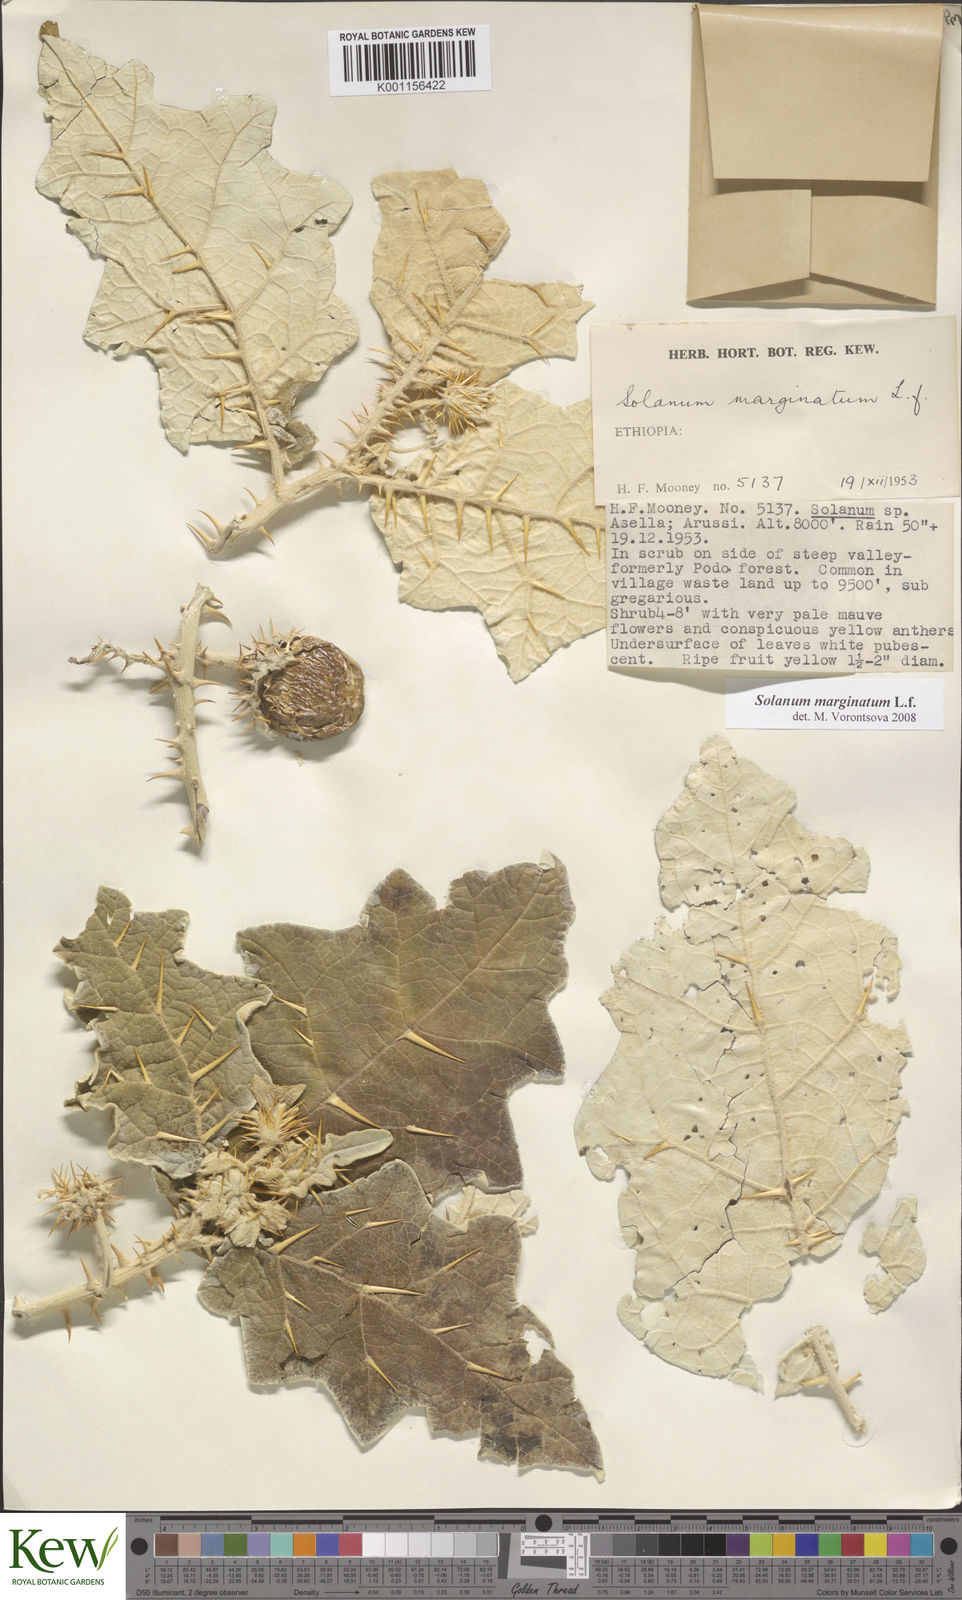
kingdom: Plantae
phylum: Tracheophyta
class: Magnoliopsida
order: Solanales
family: Solanaceae
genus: Solanum
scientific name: Solanum marginatum
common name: Purple african nightshade
